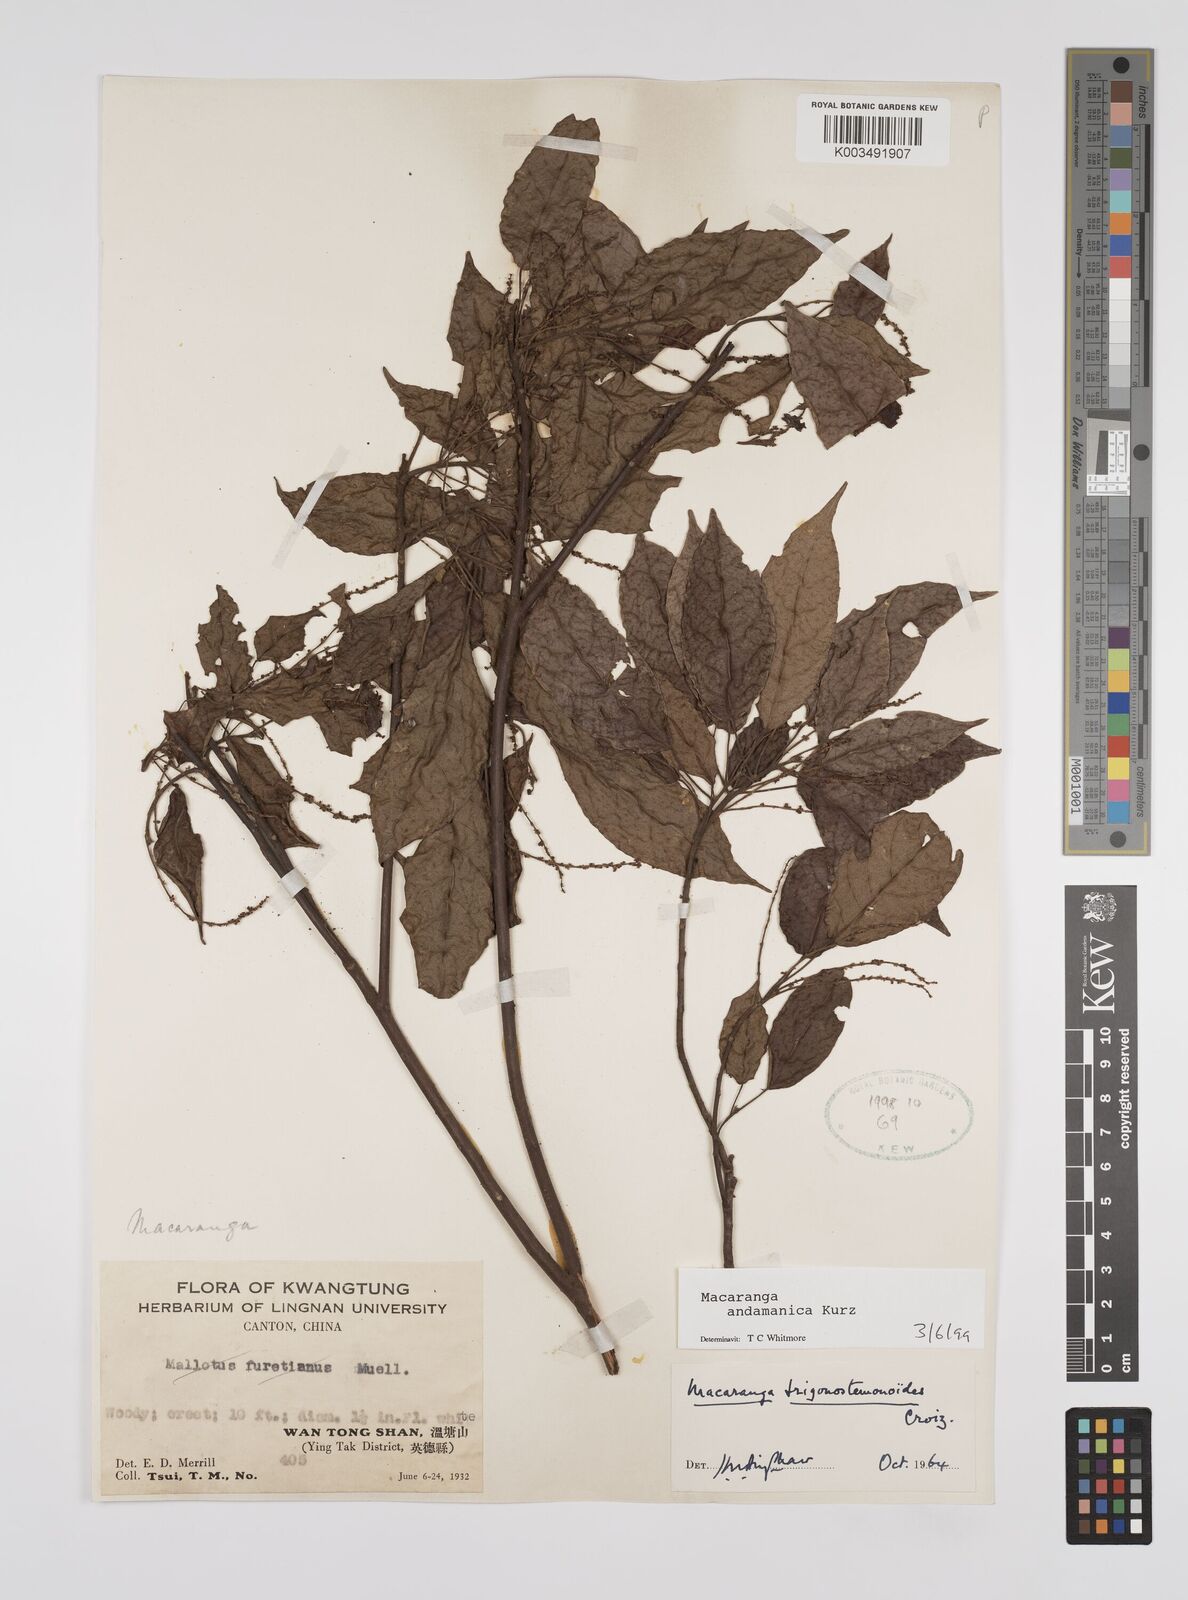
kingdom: Plantae
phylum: Tracheophyta
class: Magnoliopsida
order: Malpighiales
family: Euphorbiaceae
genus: Macaranga
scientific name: Macaranga andamanica
